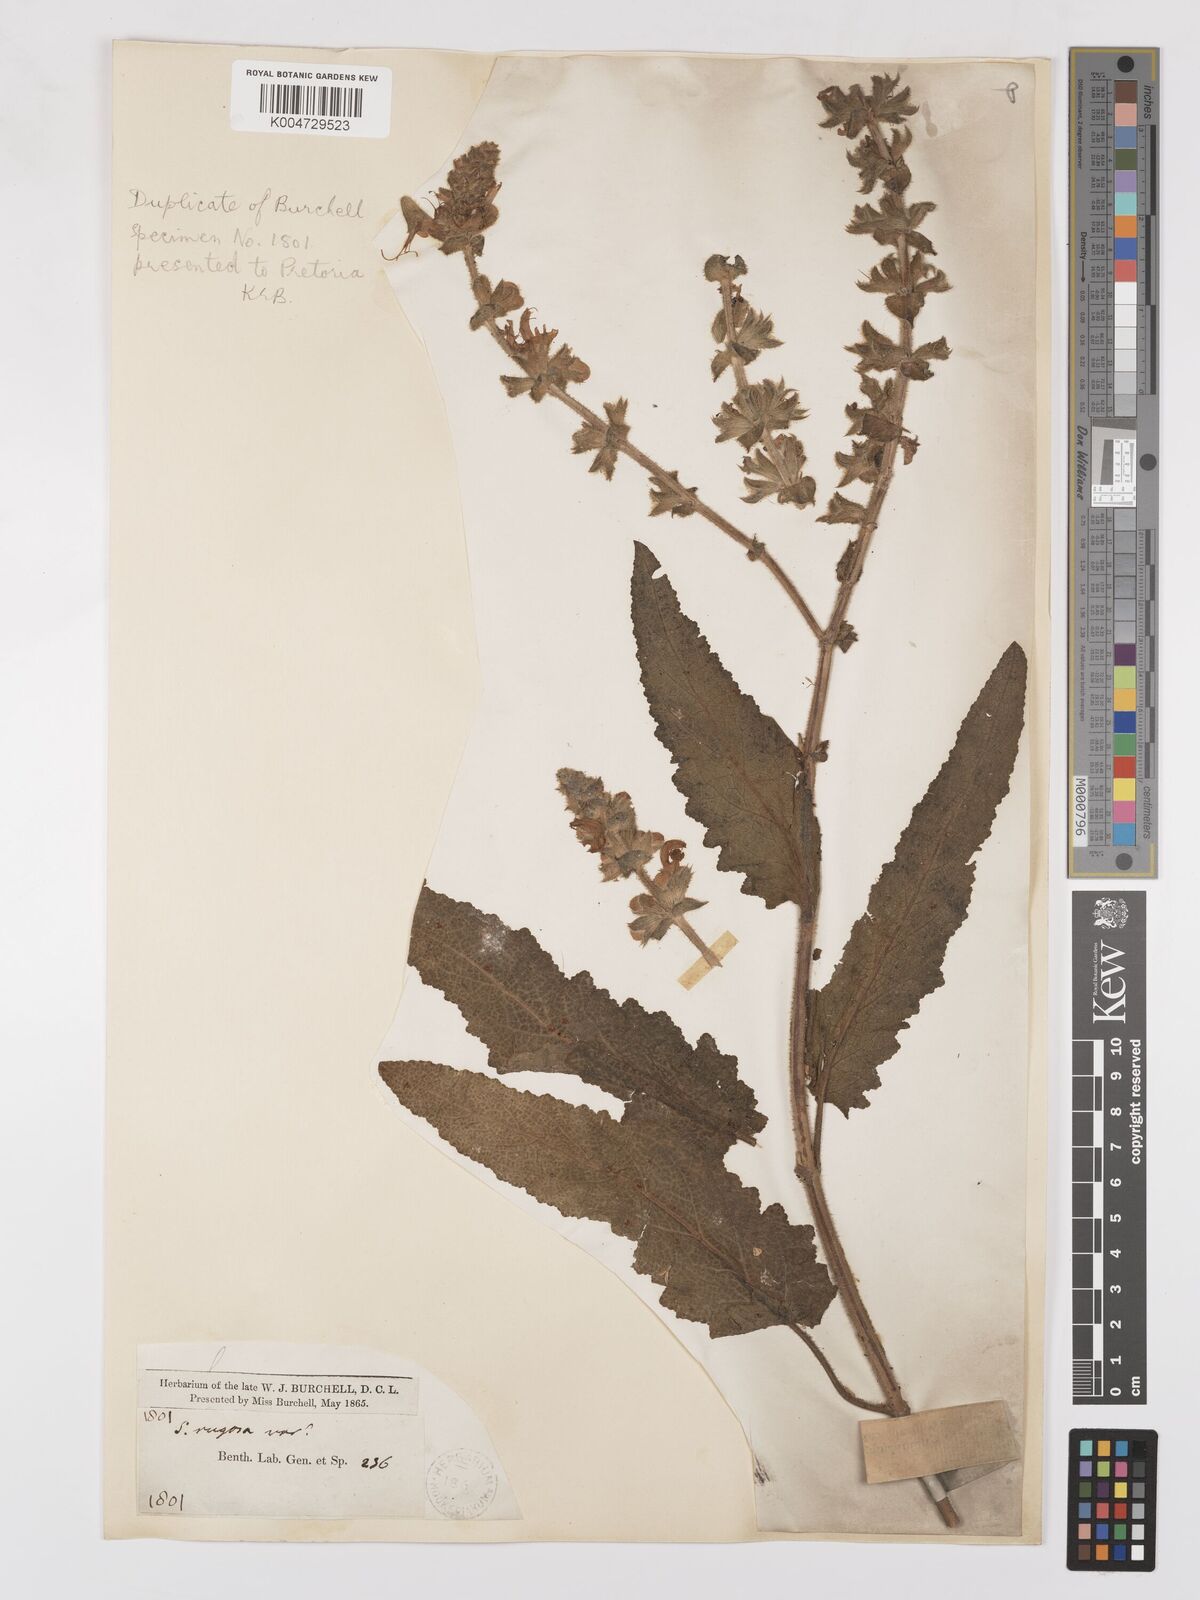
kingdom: Plantae
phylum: Tracheophyta
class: Magnoliopsida
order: Lamiales
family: Lamiaceae
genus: Salvia
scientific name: Salvia
